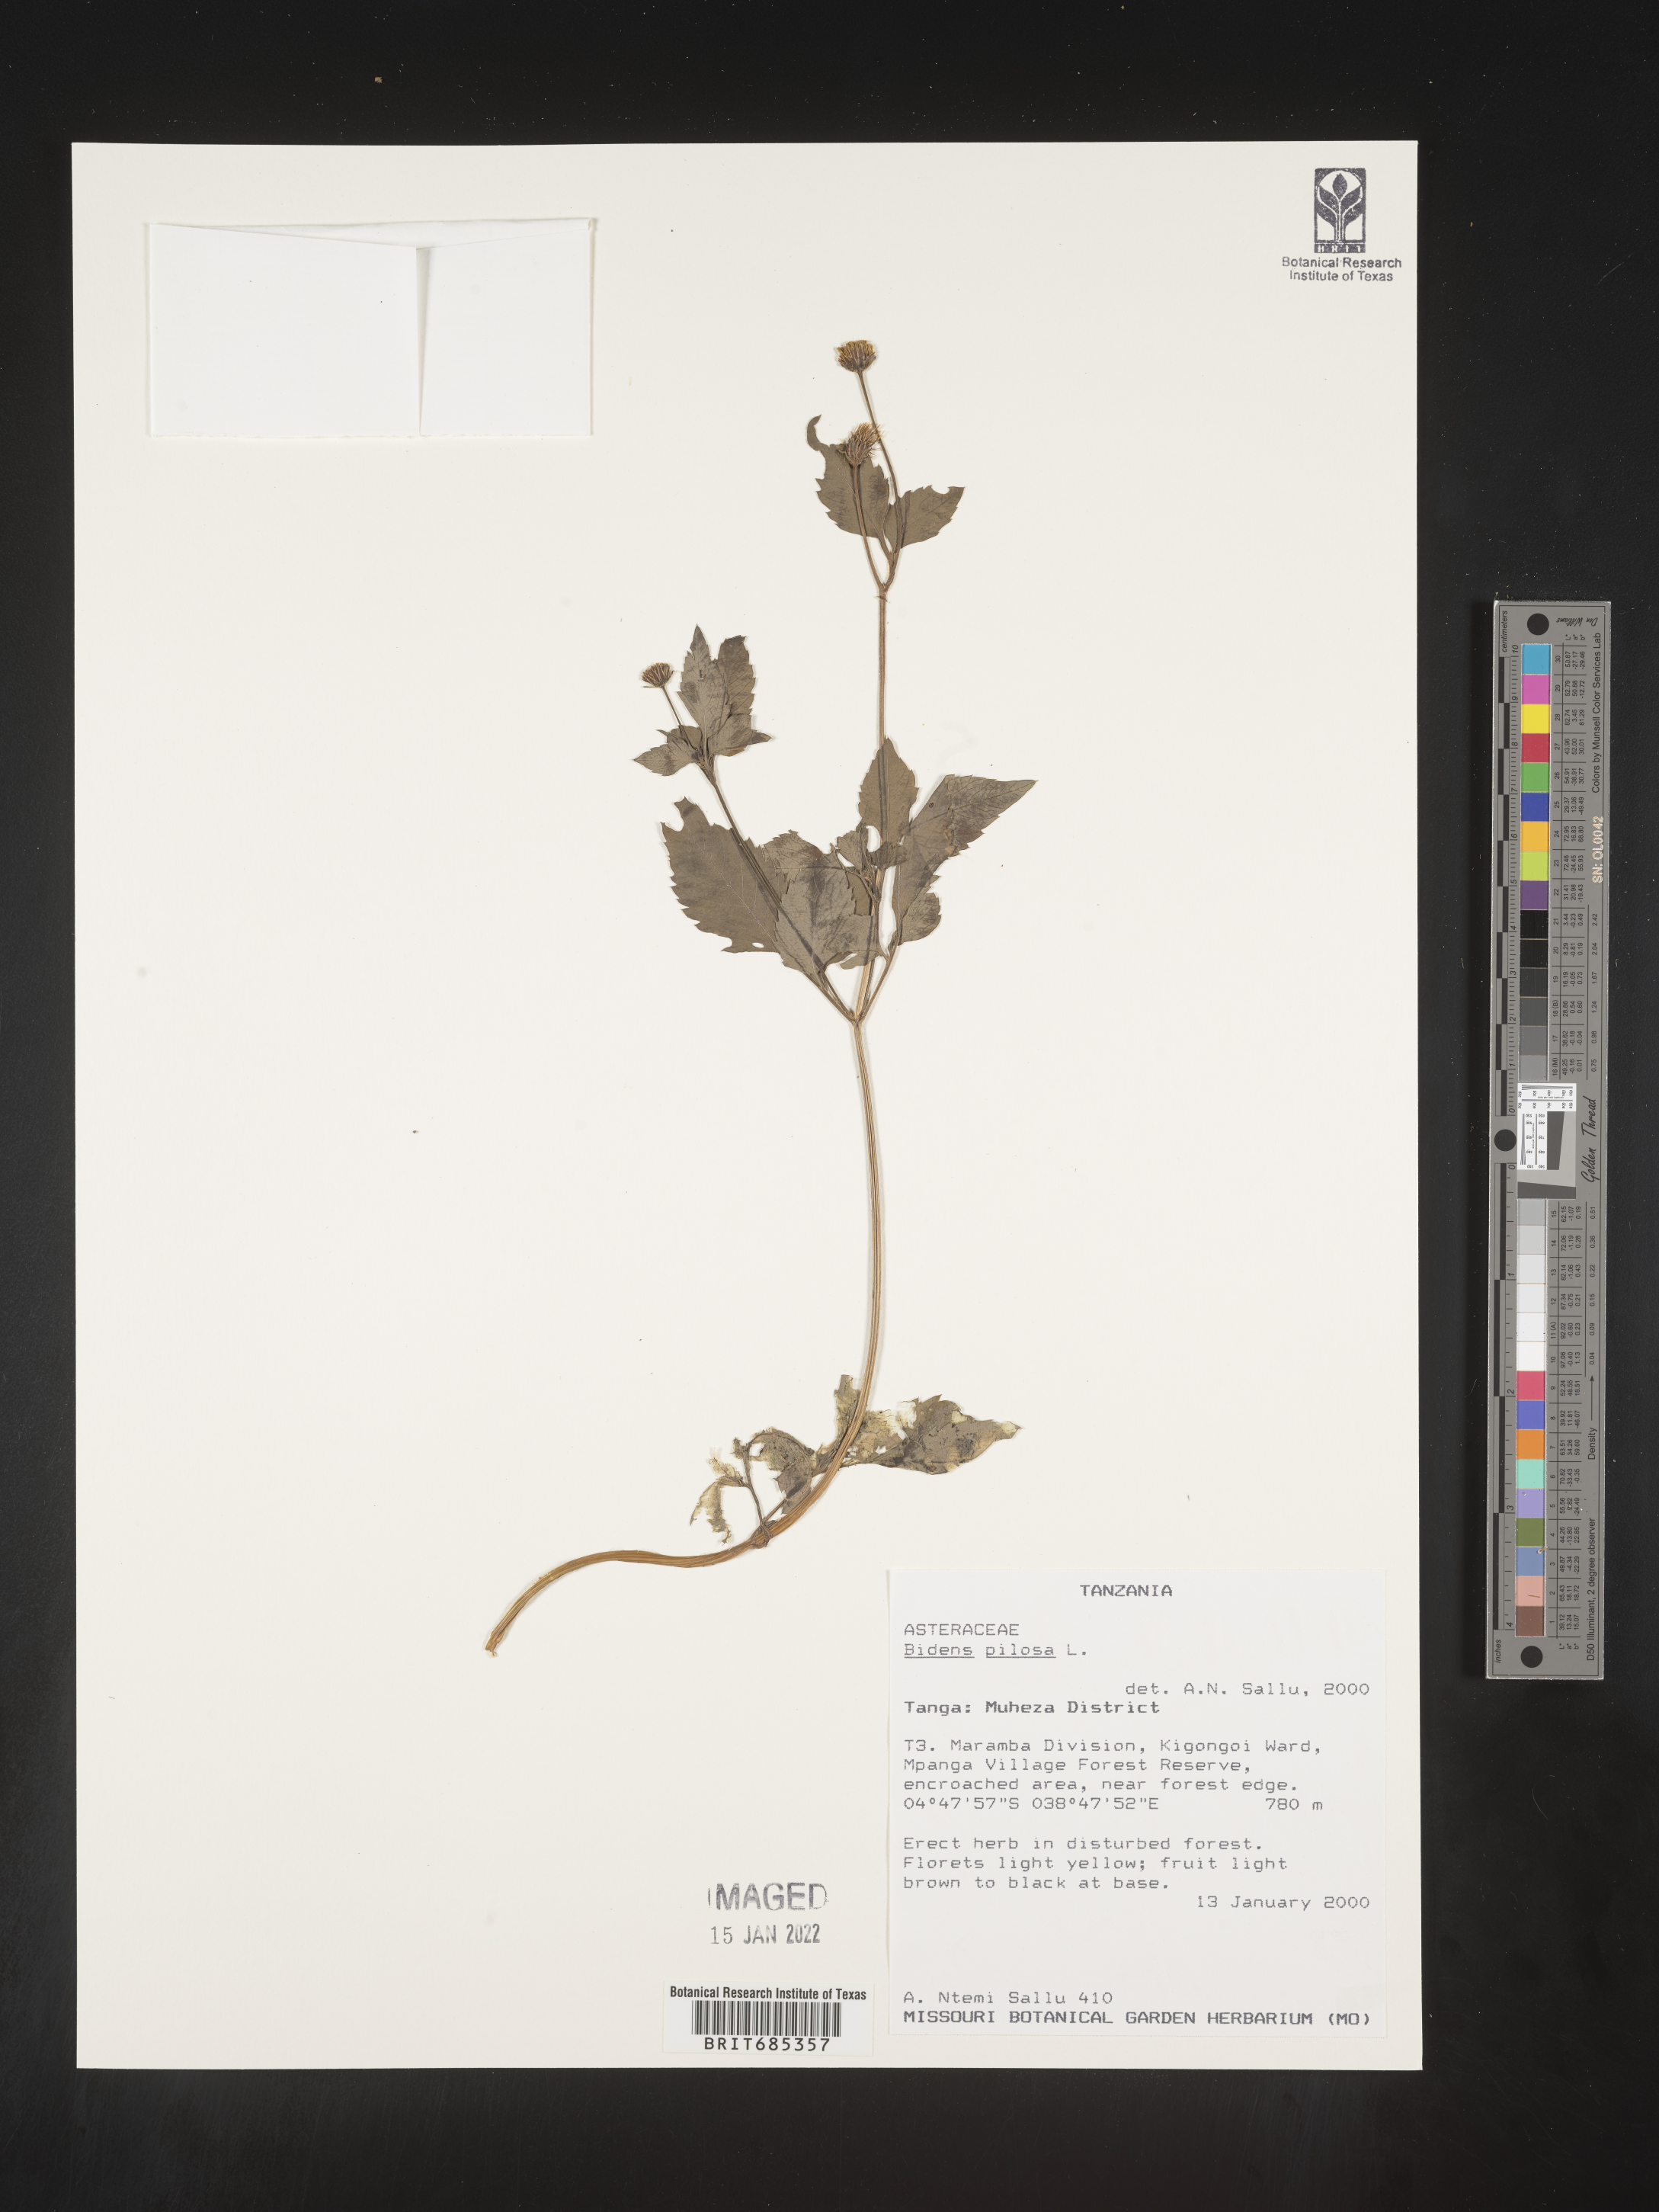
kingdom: Plantae
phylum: Tracheophyta
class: Magnoliopsida
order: Asterales
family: Asteraceae
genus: Bidens
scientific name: Bidens
